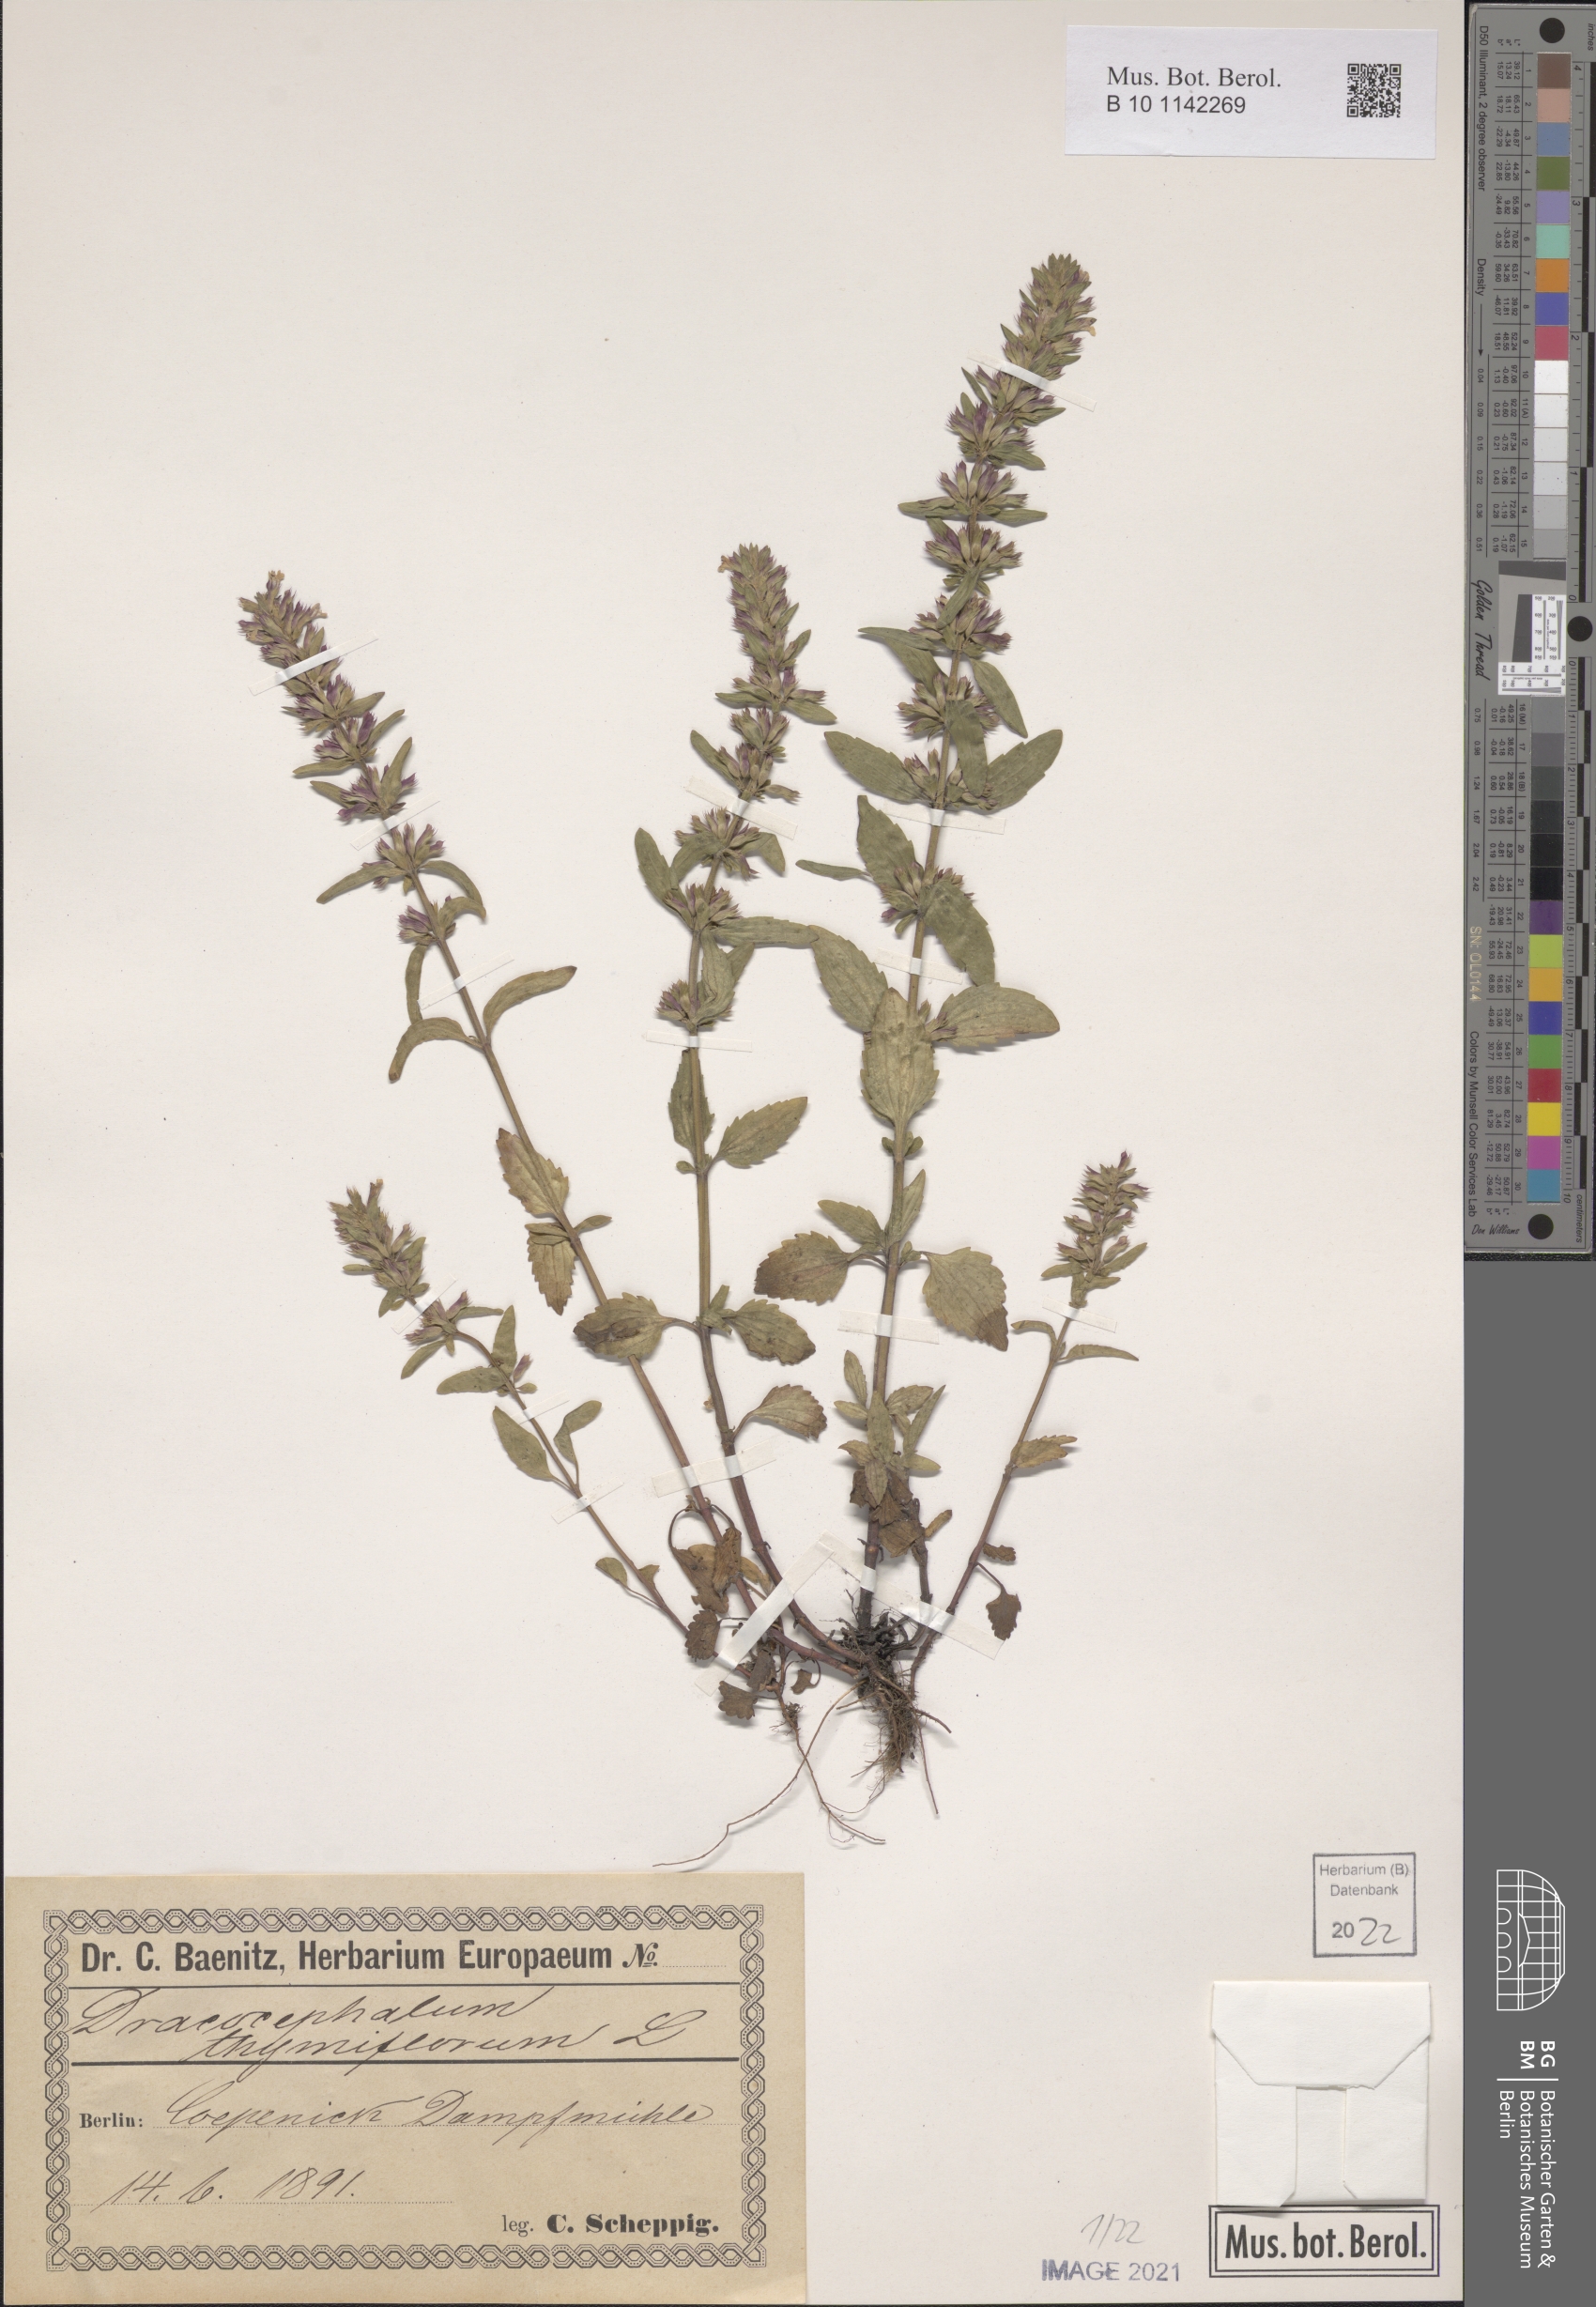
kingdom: Plantae
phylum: Tracheophyta
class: Magnoliopsida
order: Lamiales
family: Lamiaceae
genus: Dracocephalum
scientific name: Dracocephalum thymiflorum
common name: Thymeleaf dragonhead
